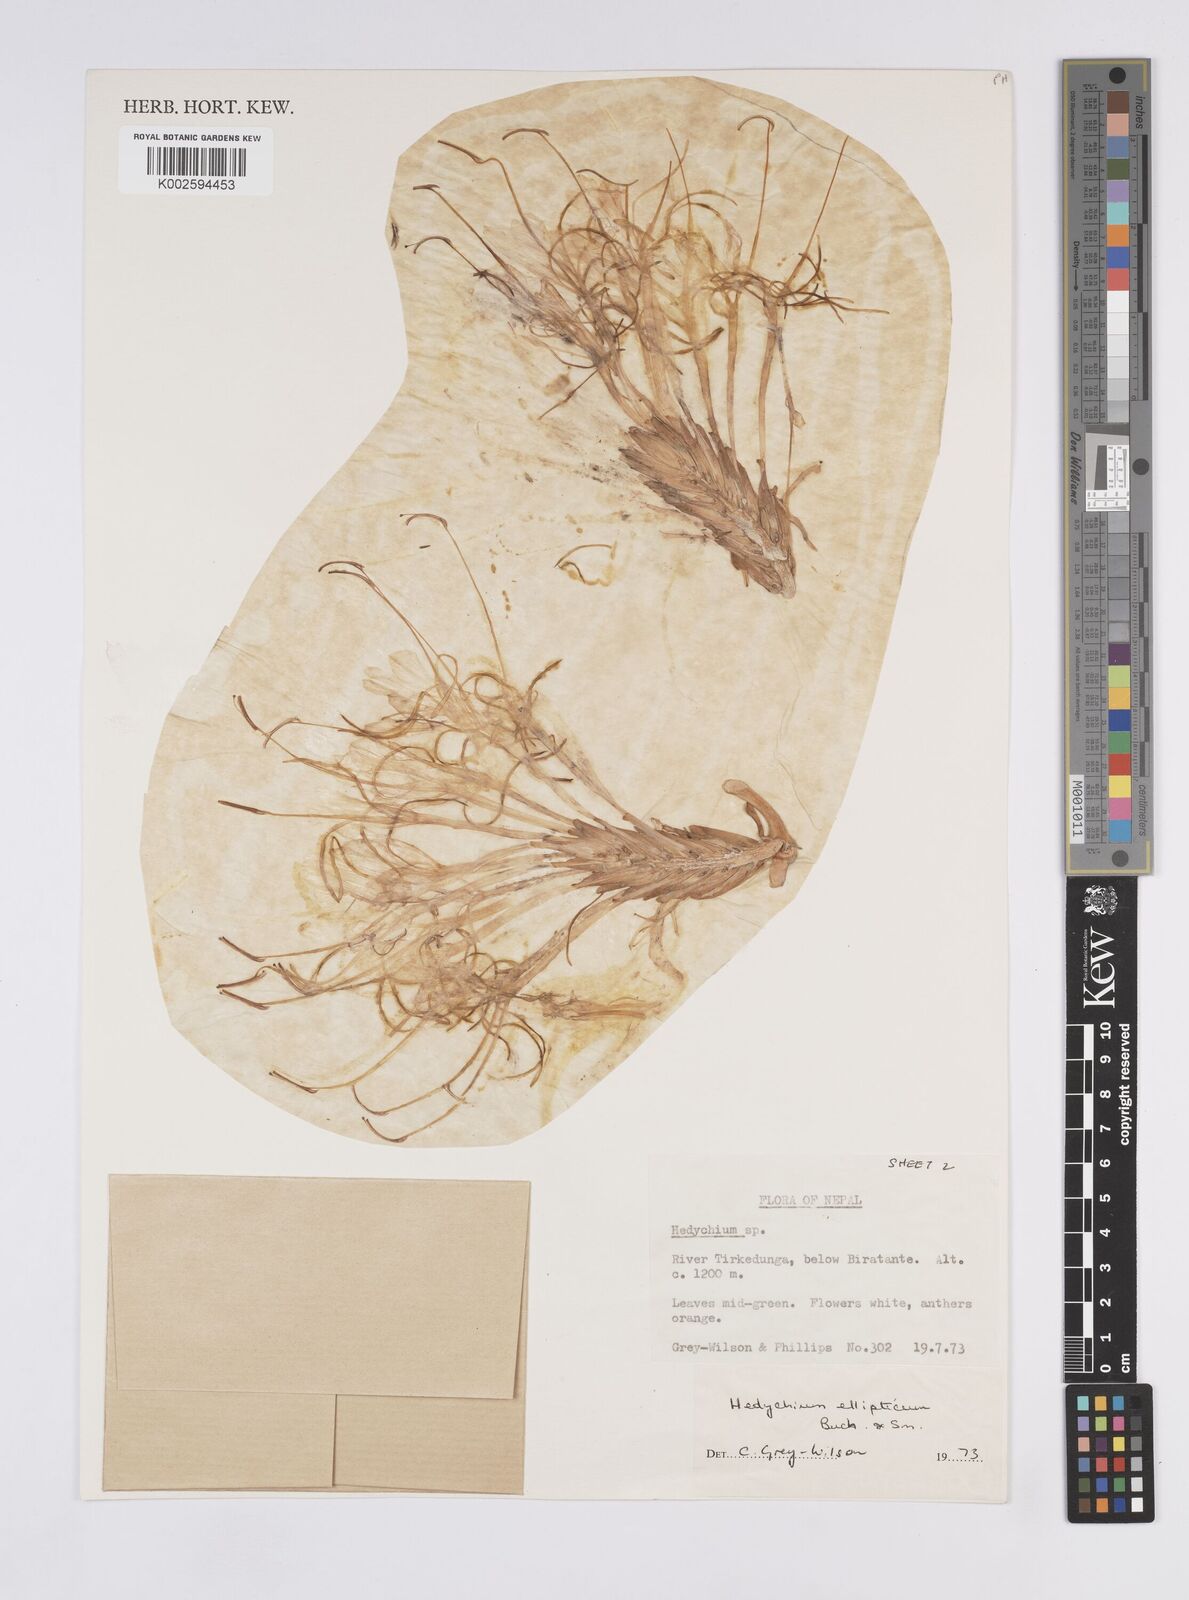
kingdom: Plantae
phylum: Tracheophyta
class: Liliopsida
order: Zingiberales
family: Zingiberaceae
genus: Hedychium
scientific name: Hedychium ellipticum
